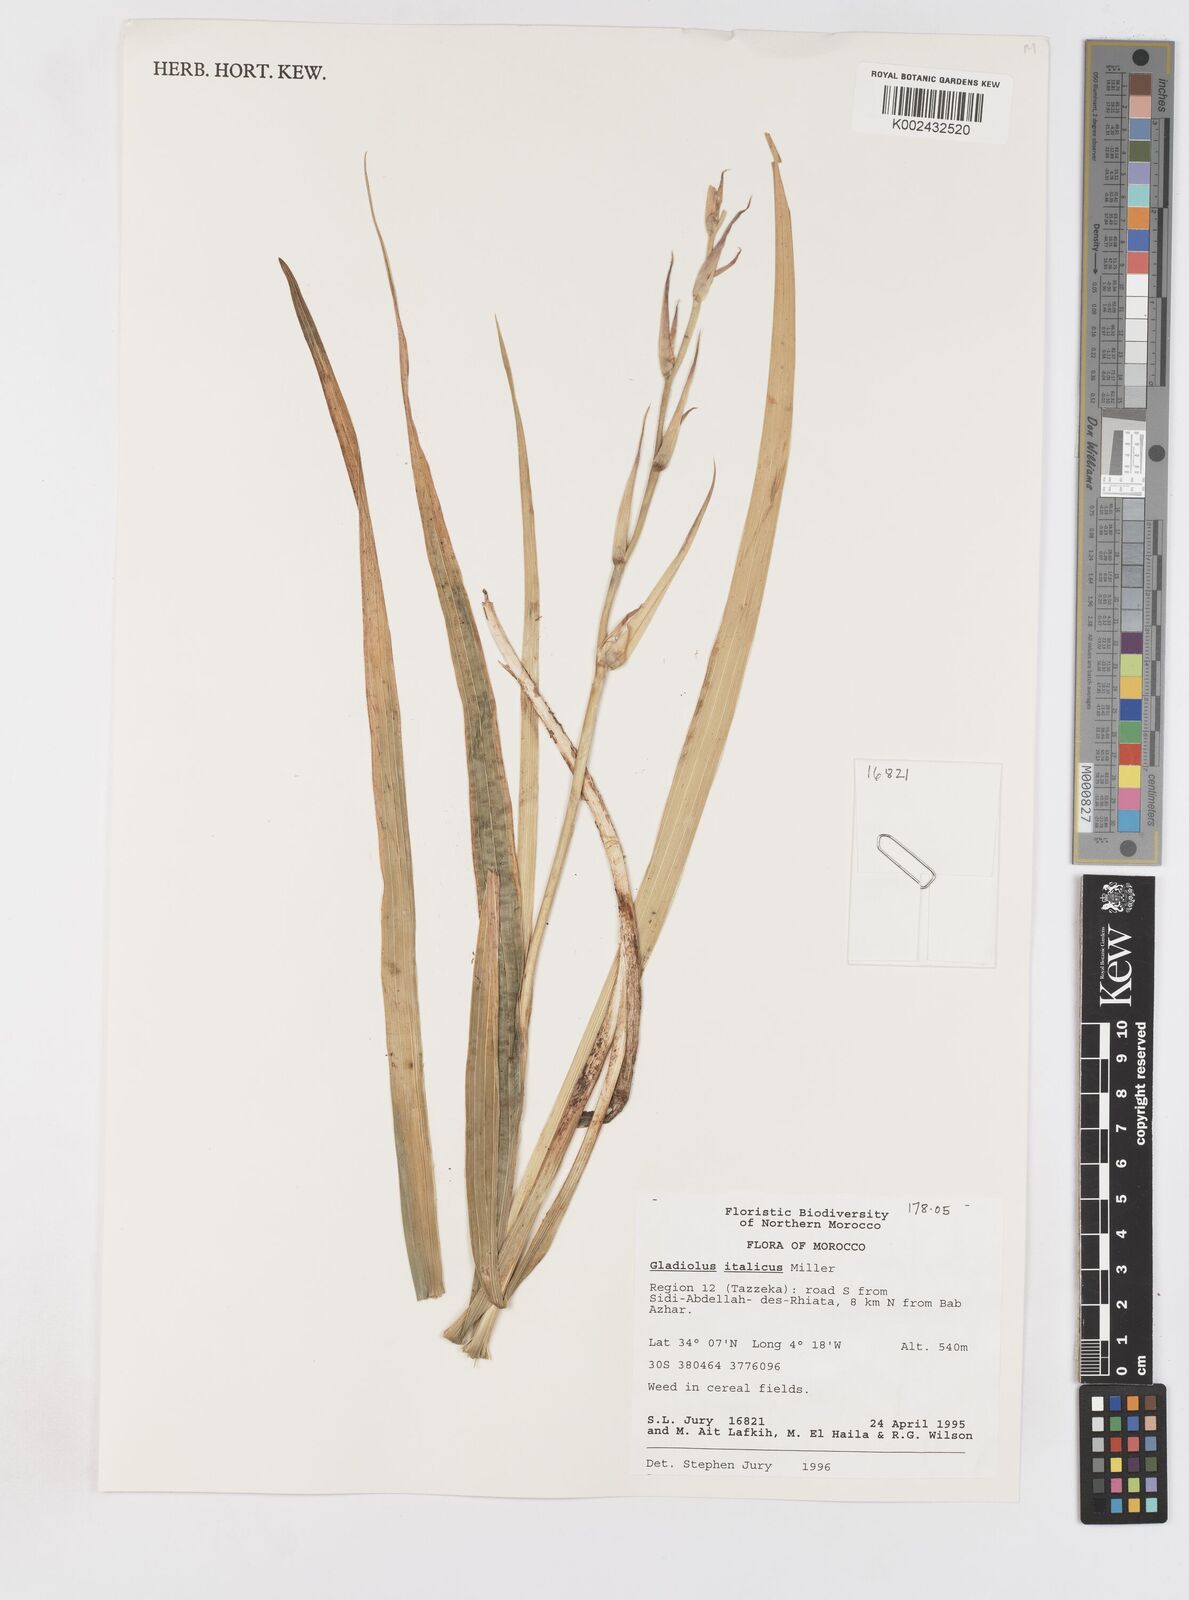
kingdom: Plantae
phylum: Tracheophyta
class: Liliopsida
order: Asparagales
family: Iridaceae
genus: Gladiolus
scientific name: Gladiolus
